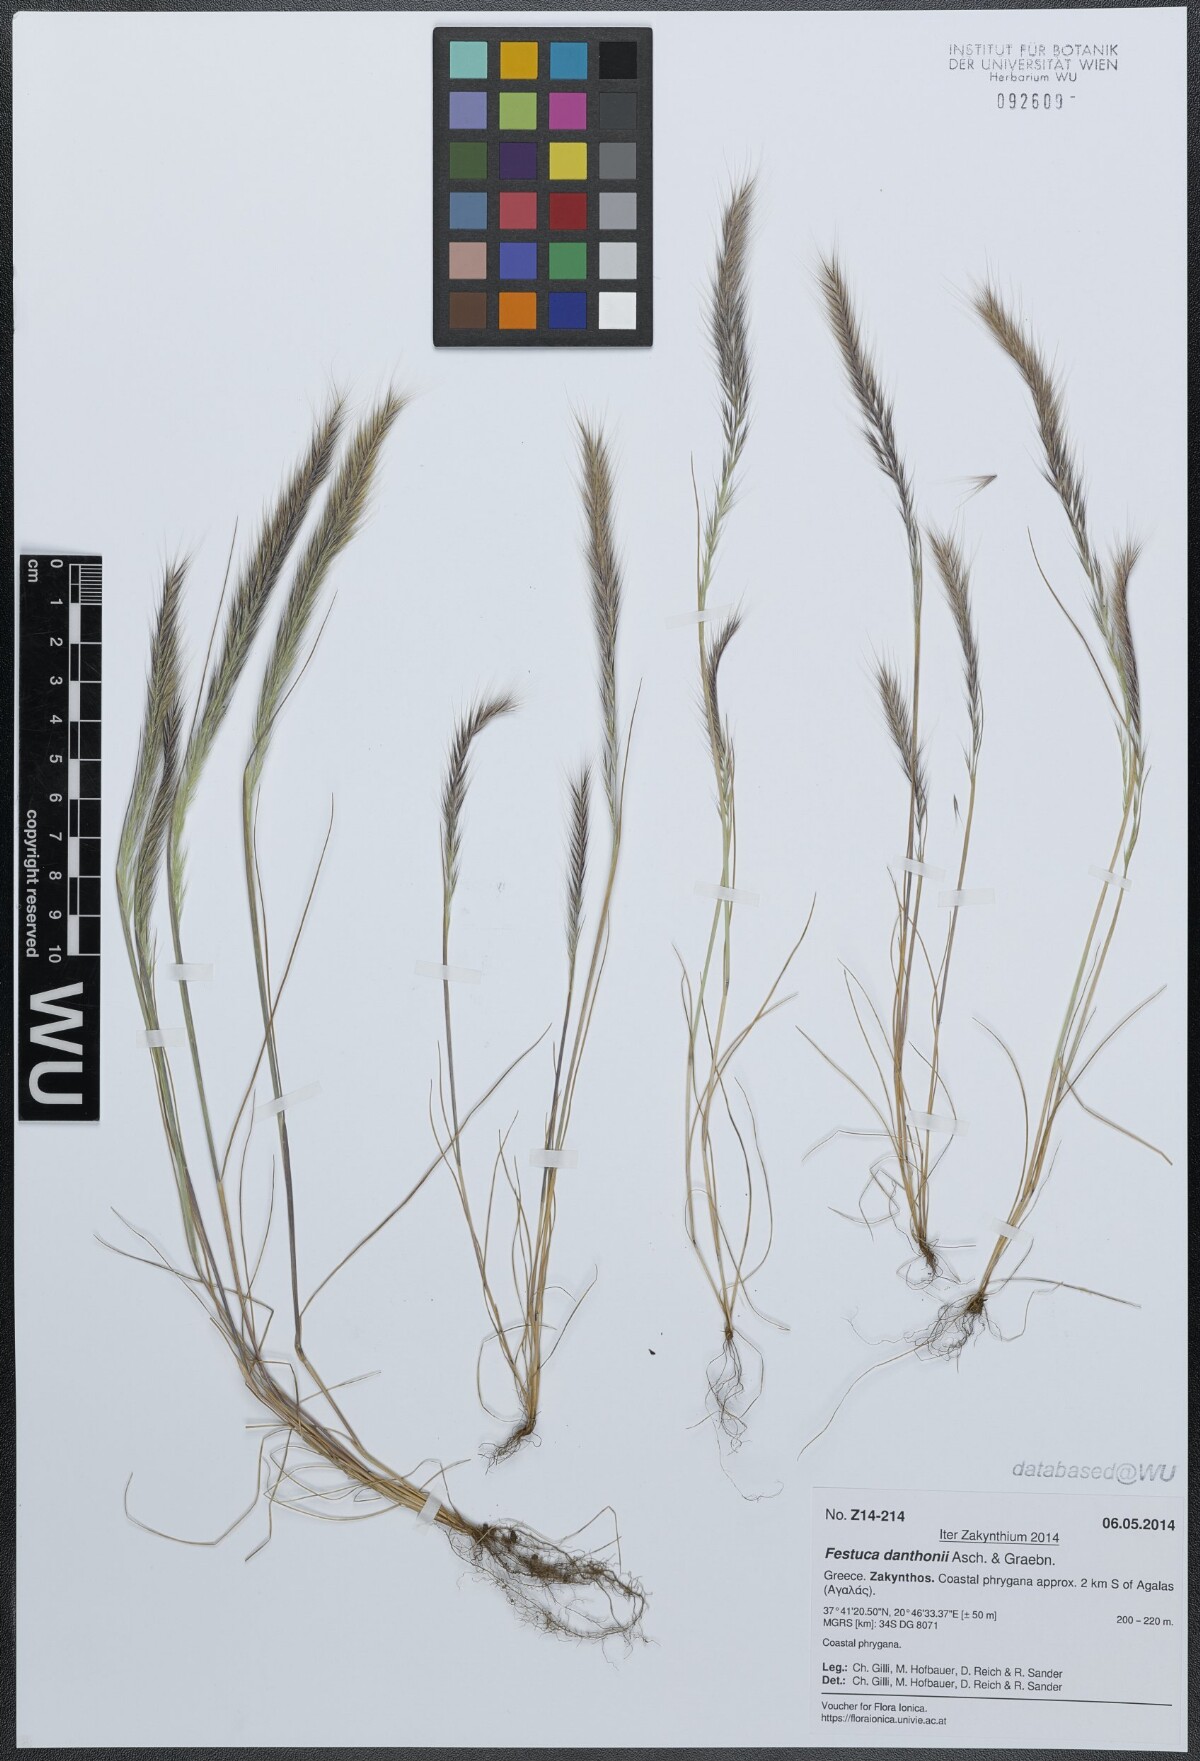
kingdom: Plantae
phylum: Tracheophyta
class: Liliopsida
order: Poales
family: Poaceae
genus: Festuca
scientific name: Festuca ambigua
